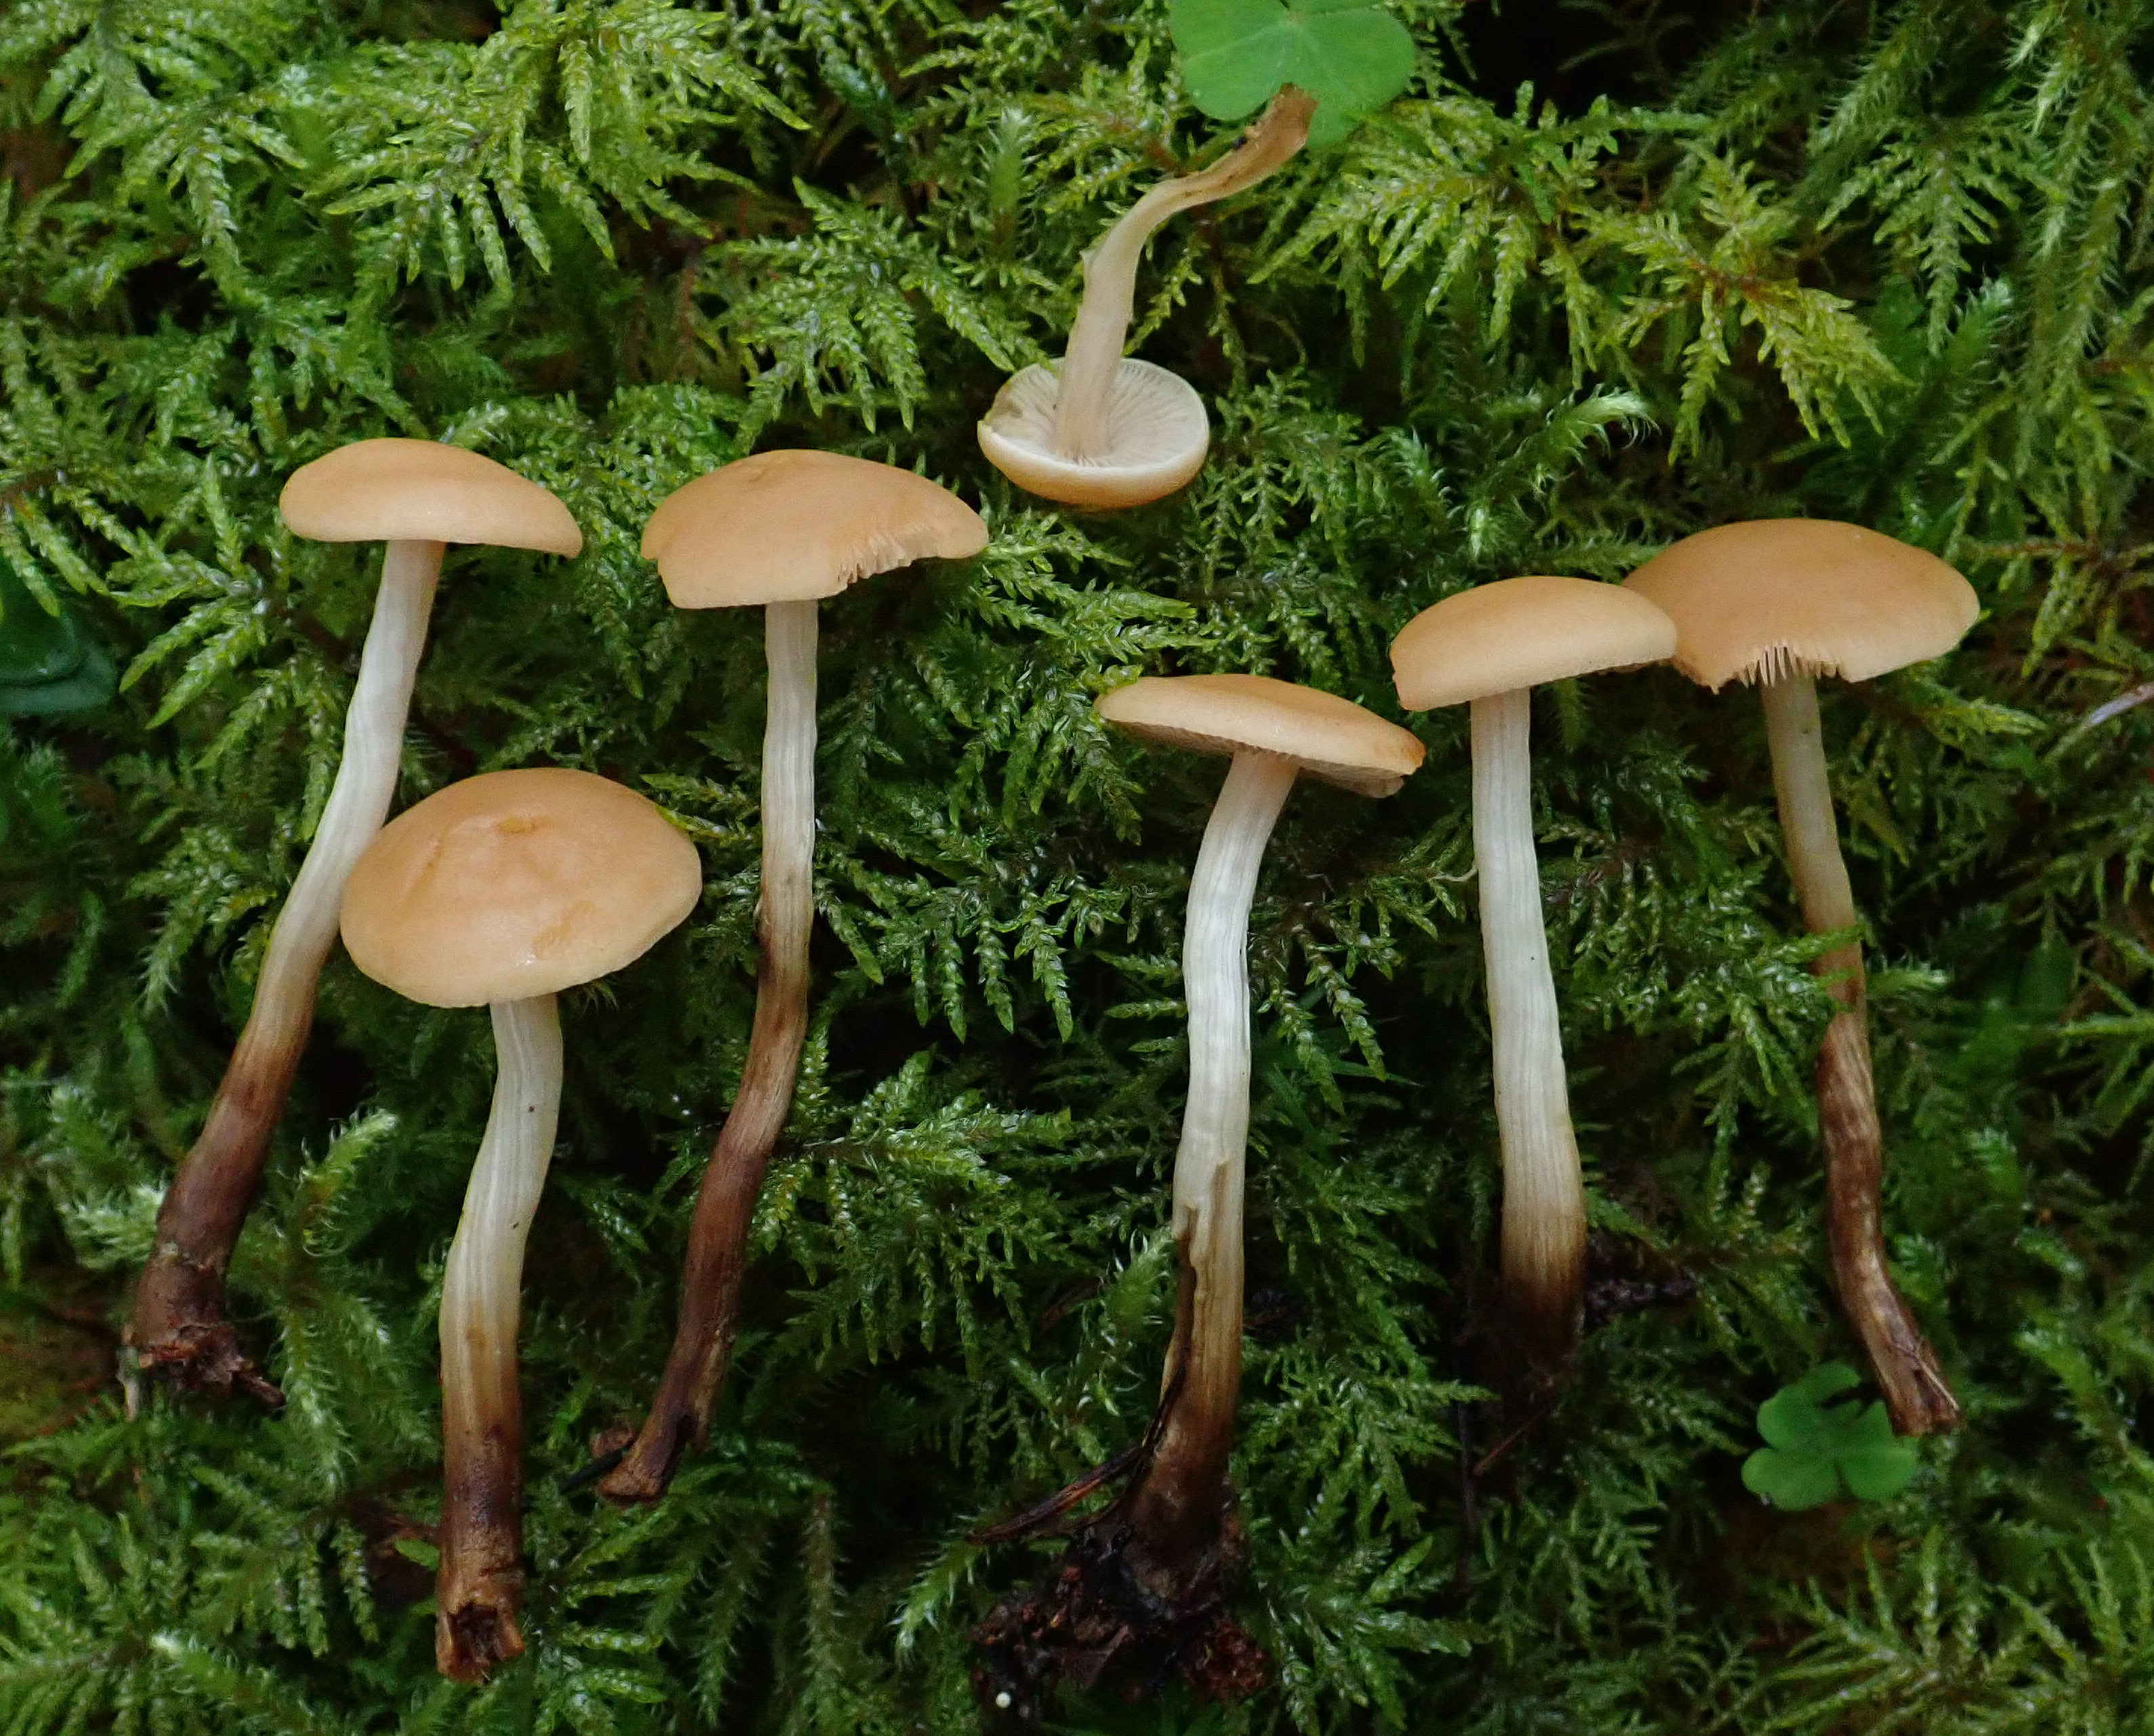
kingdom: Fungi
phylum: Basidiomycota
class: Agaricomycetes
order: Agaricales
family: Hymenogastraceae
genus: Hebeloma
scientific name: Hebeloma syrjense
